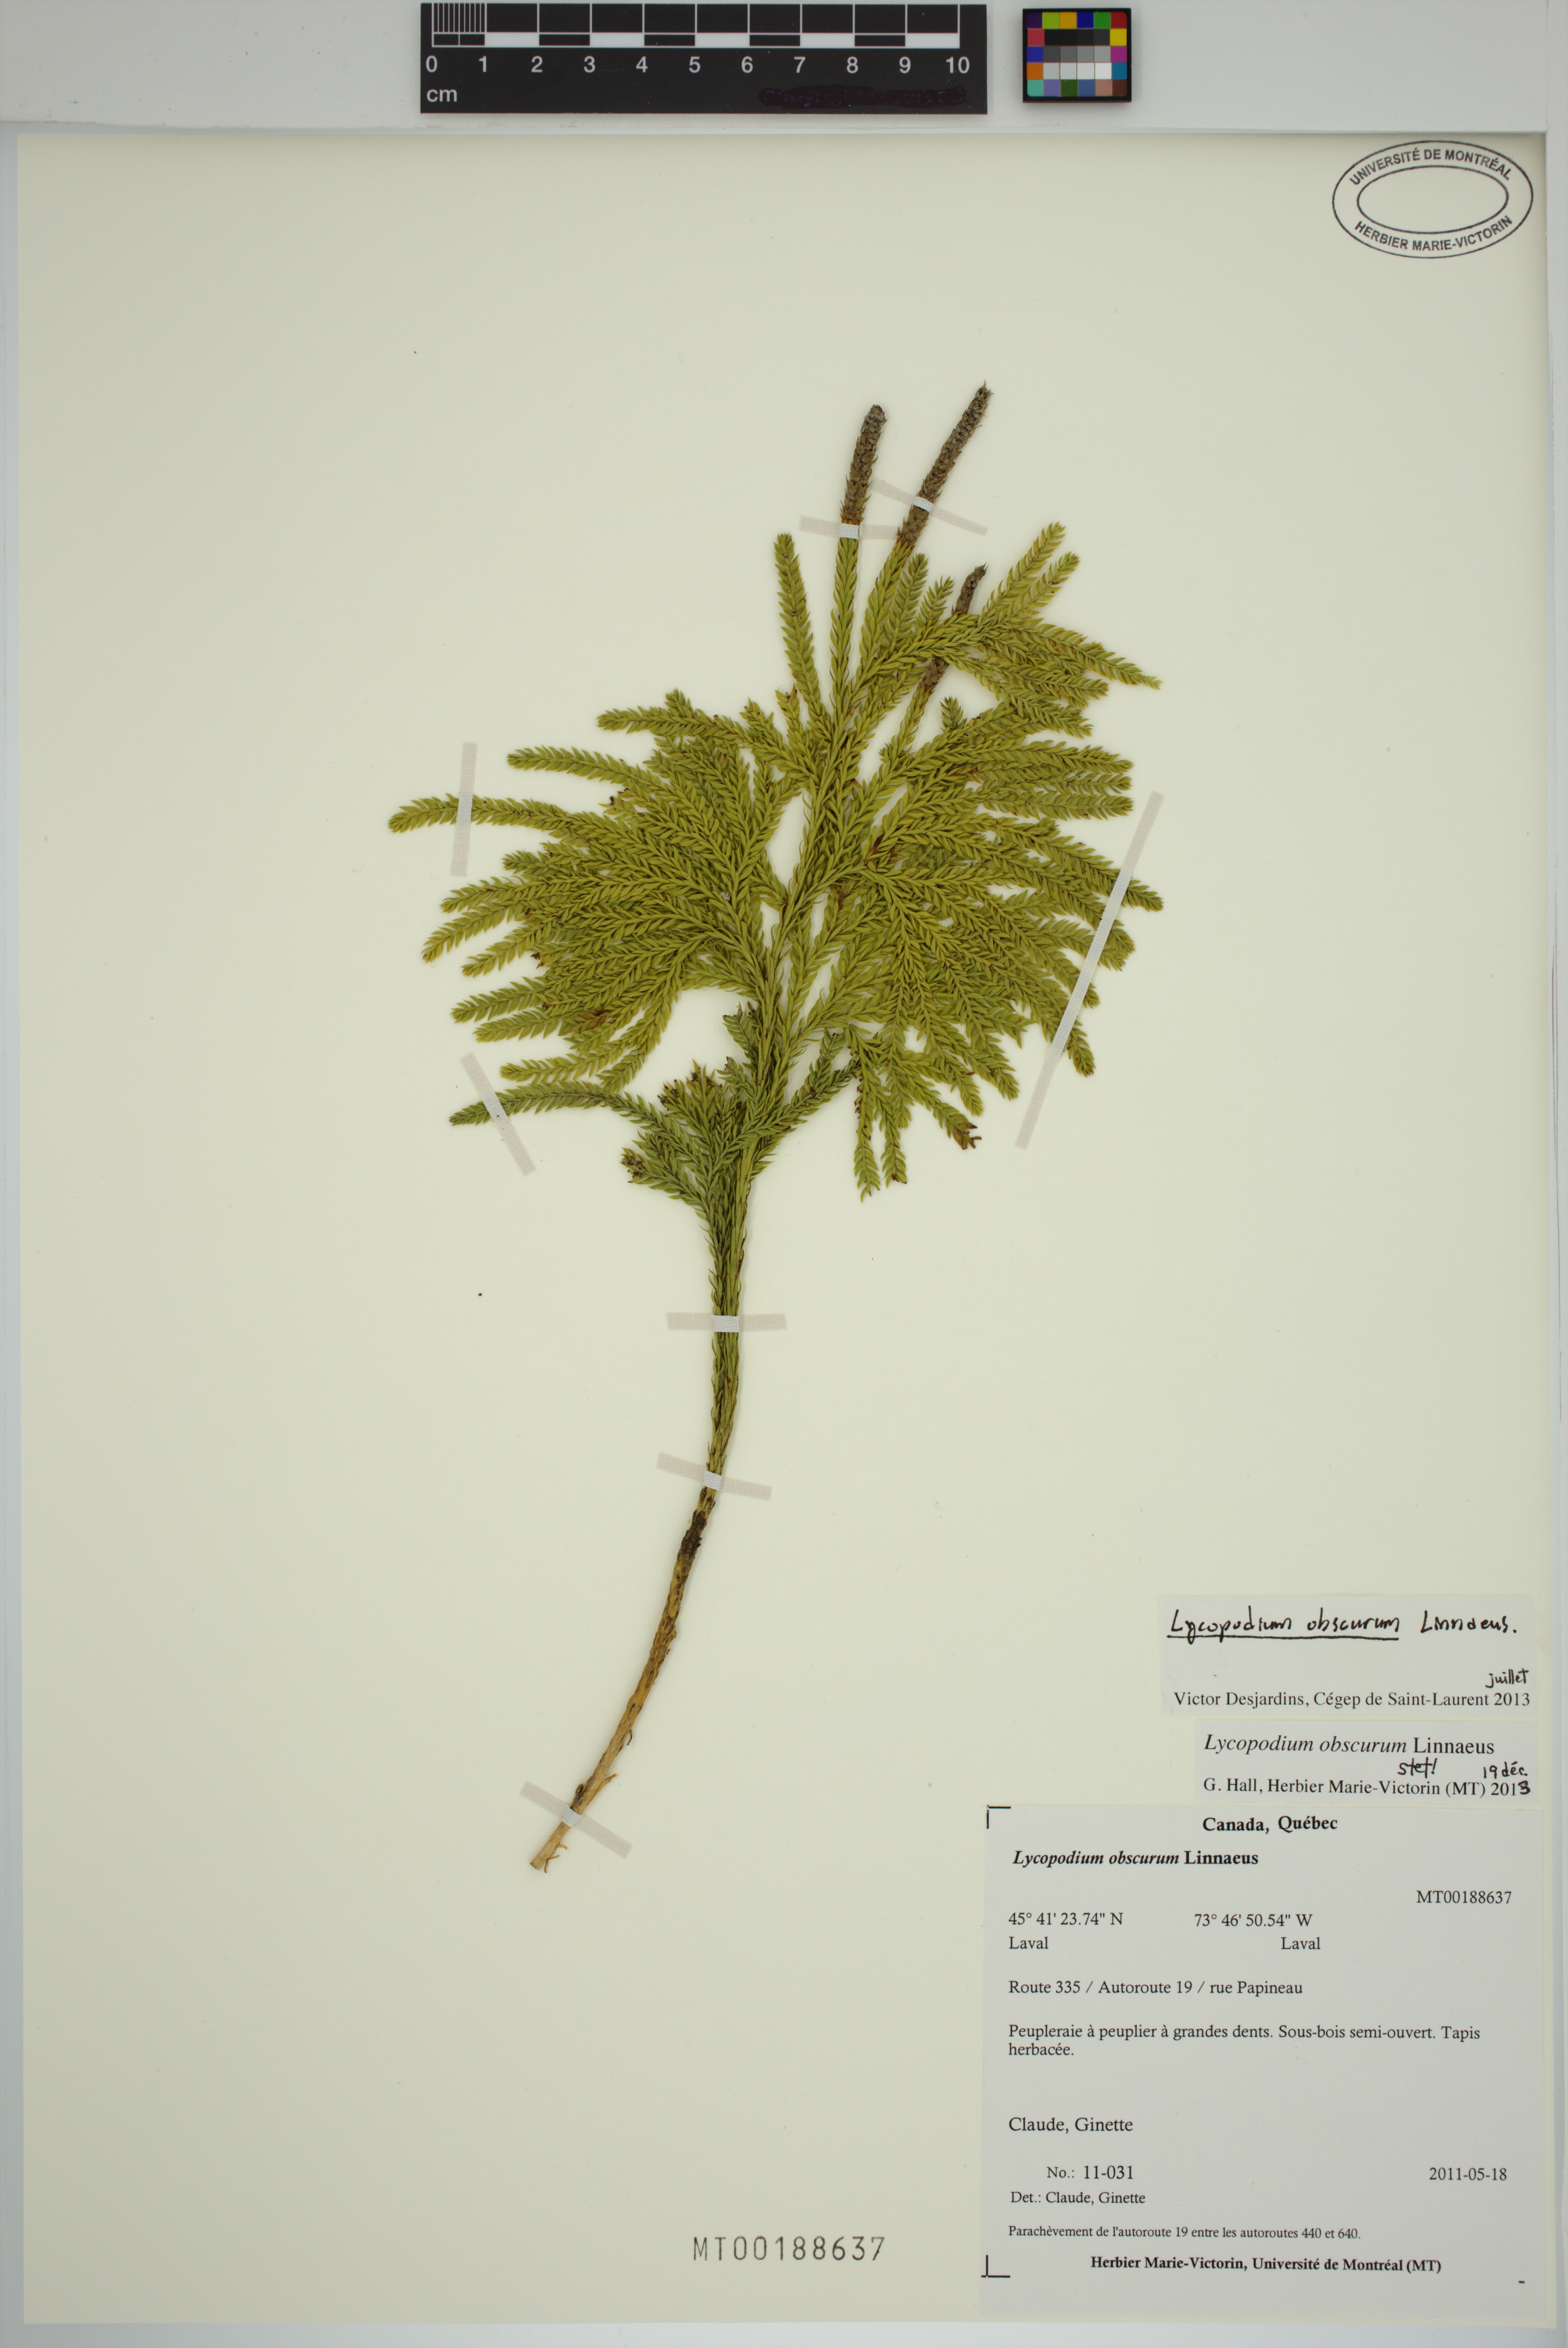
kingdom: Plantae
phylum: Tracheophyta
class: Lycopodiopsida
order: Lycopodiales
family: Lycopodiaceae
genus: Dendrolycopodium
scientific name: Dendrolycopodium obscurum
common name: Common ground-pine
